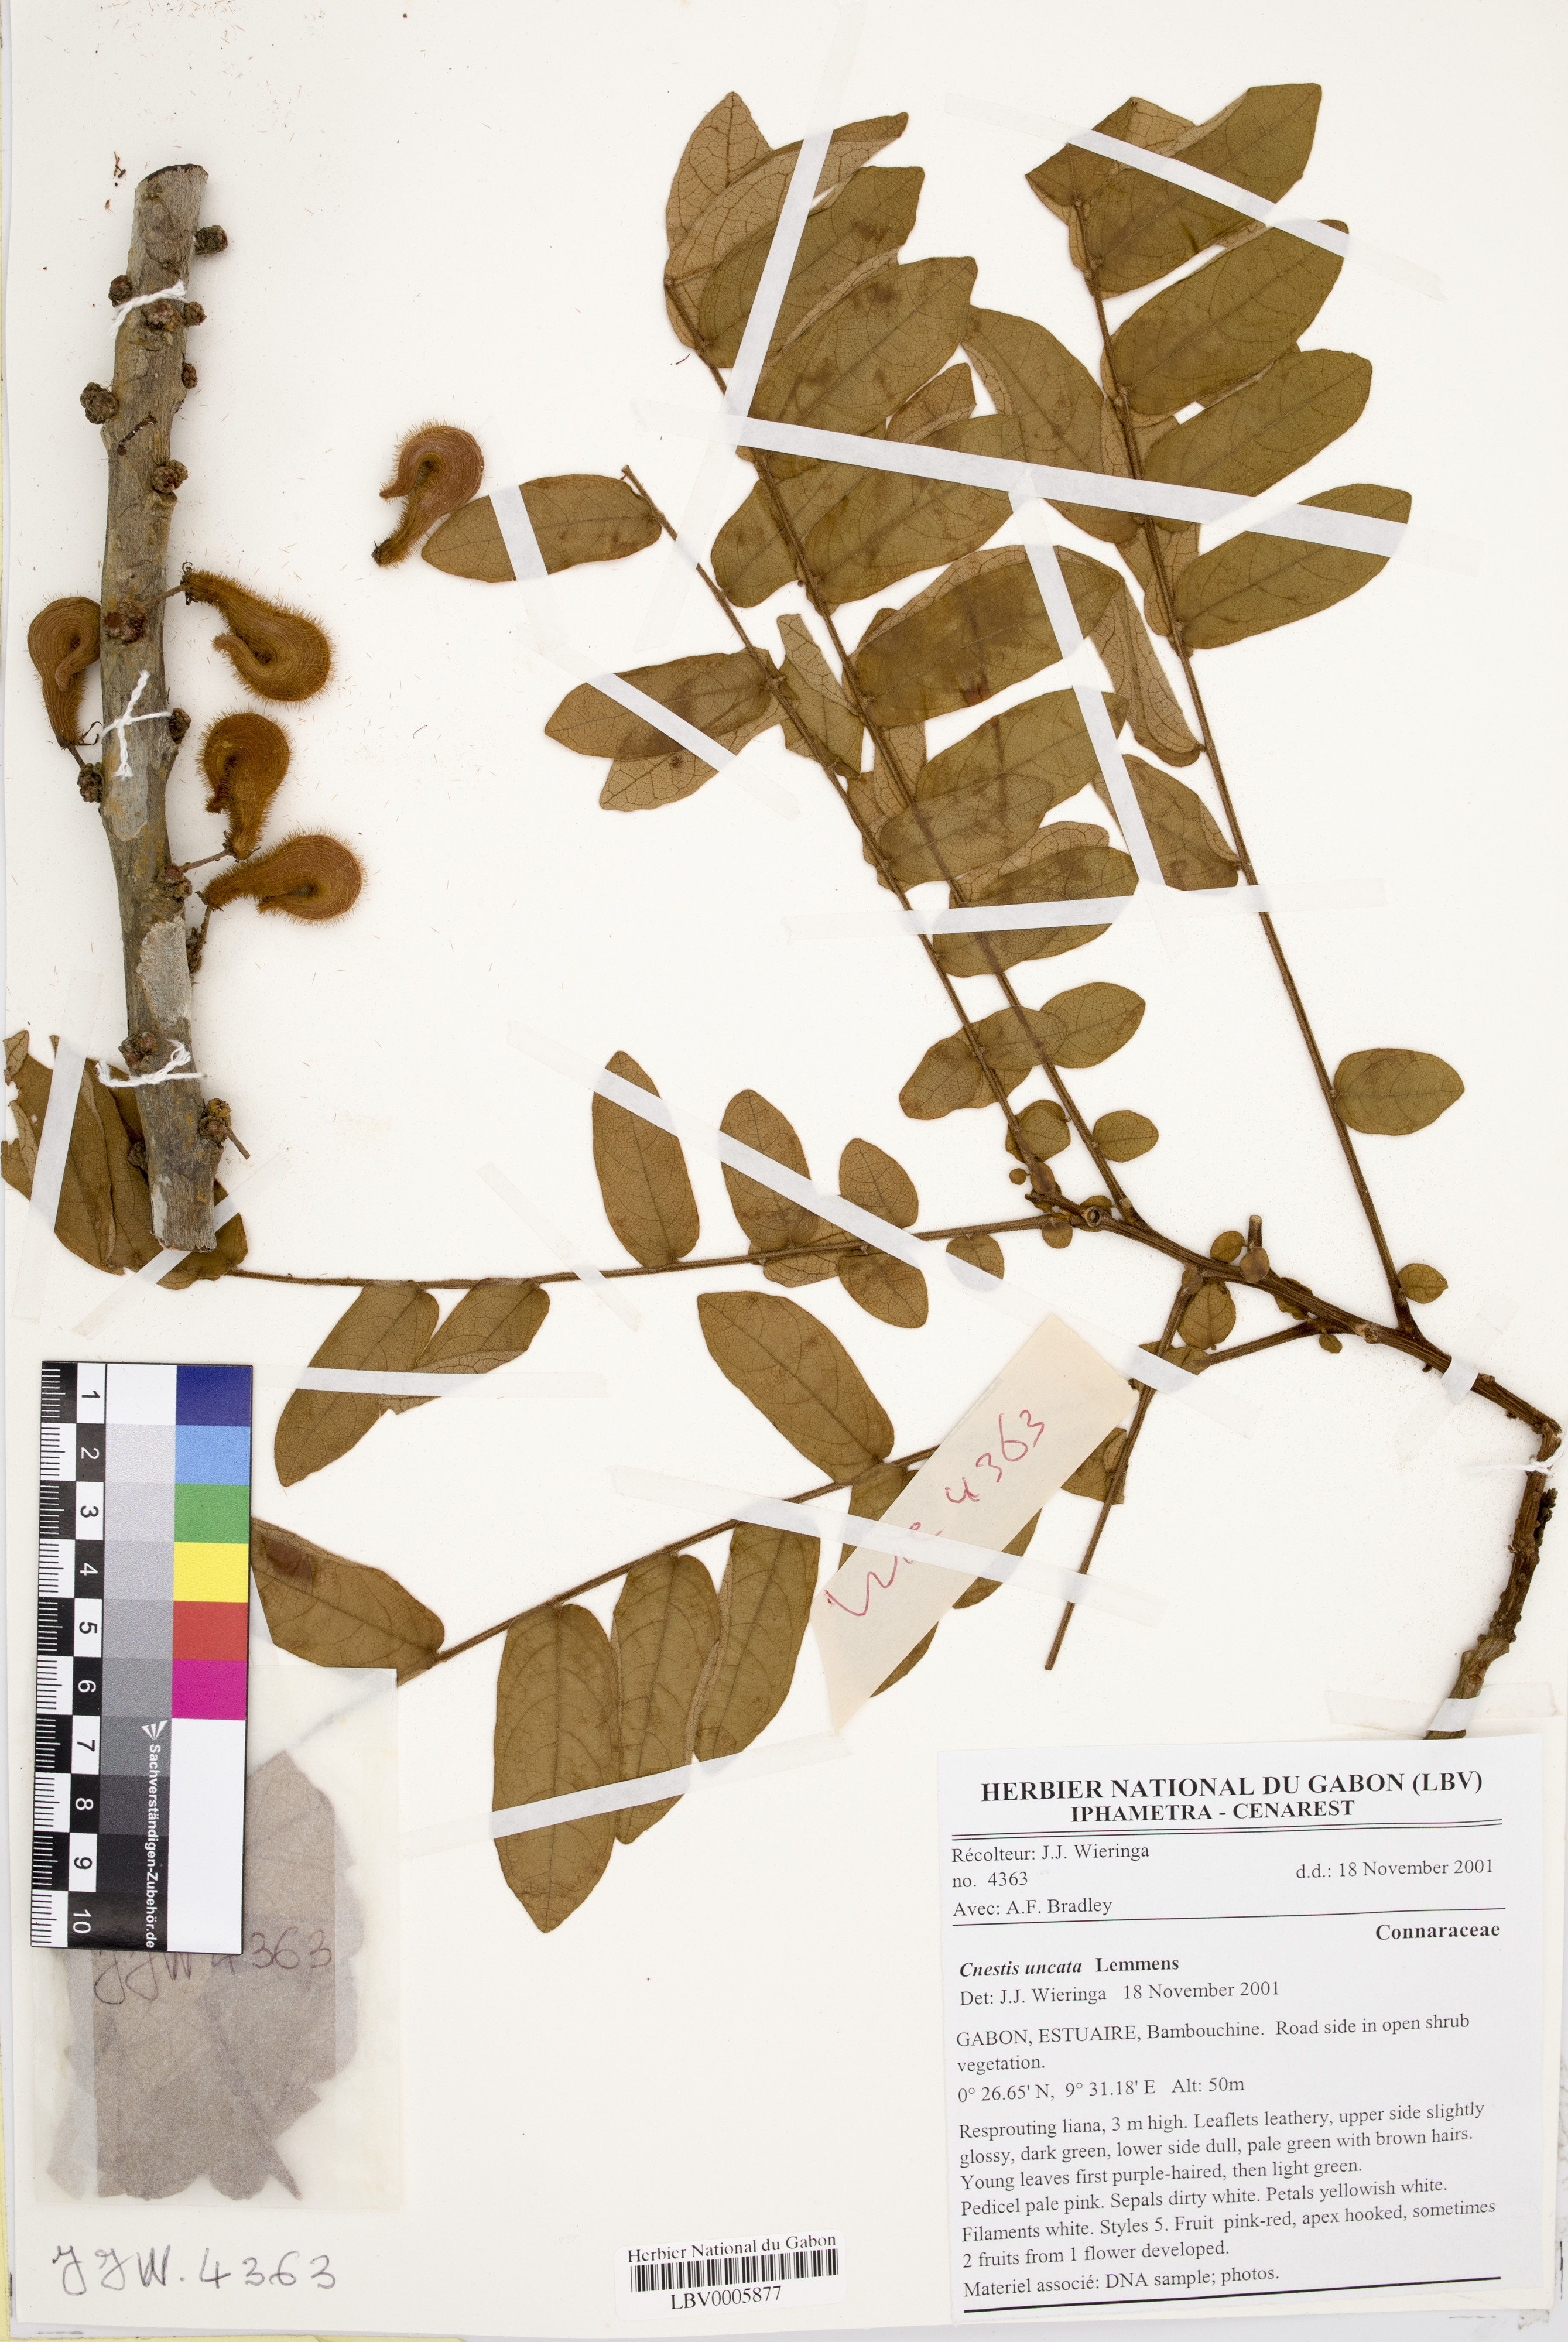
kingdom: Plantae
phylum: Tracheophyta
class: Magnoliopsida
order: Oxalidales
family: Connaraceae
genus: Cnestis
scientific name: Cnestis uncata
